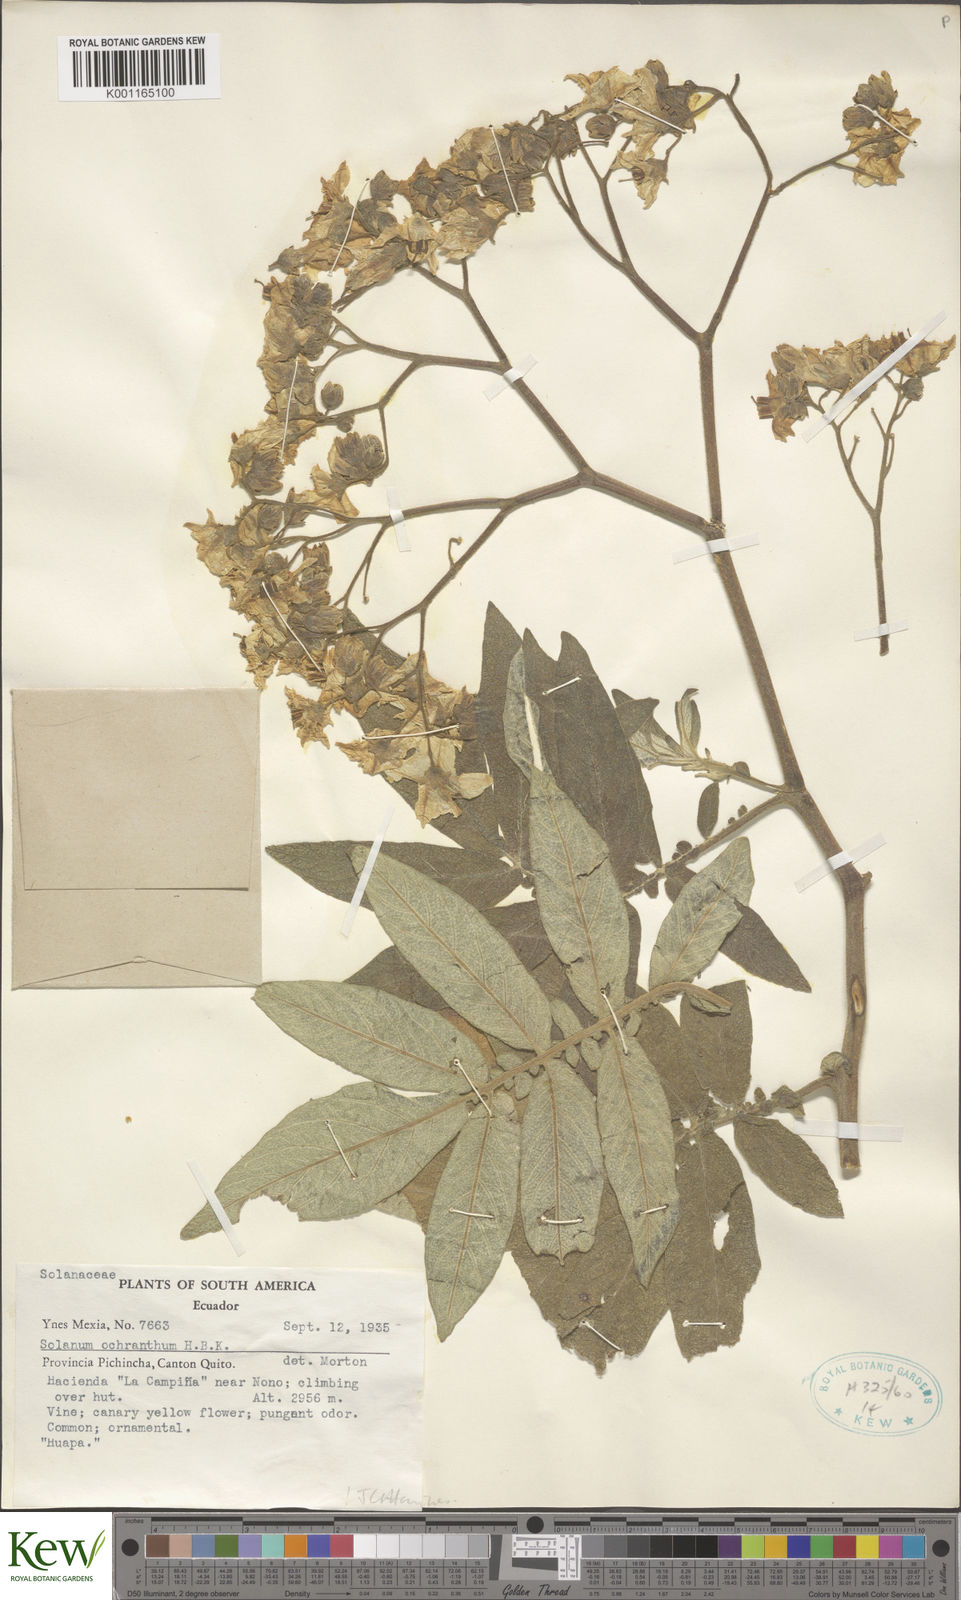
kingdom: Plantae
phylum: Tracheophyta
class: Magnoliopsida
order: Solanales
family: Solanaceae
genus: Solanum
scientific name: Solanum ochranthum
